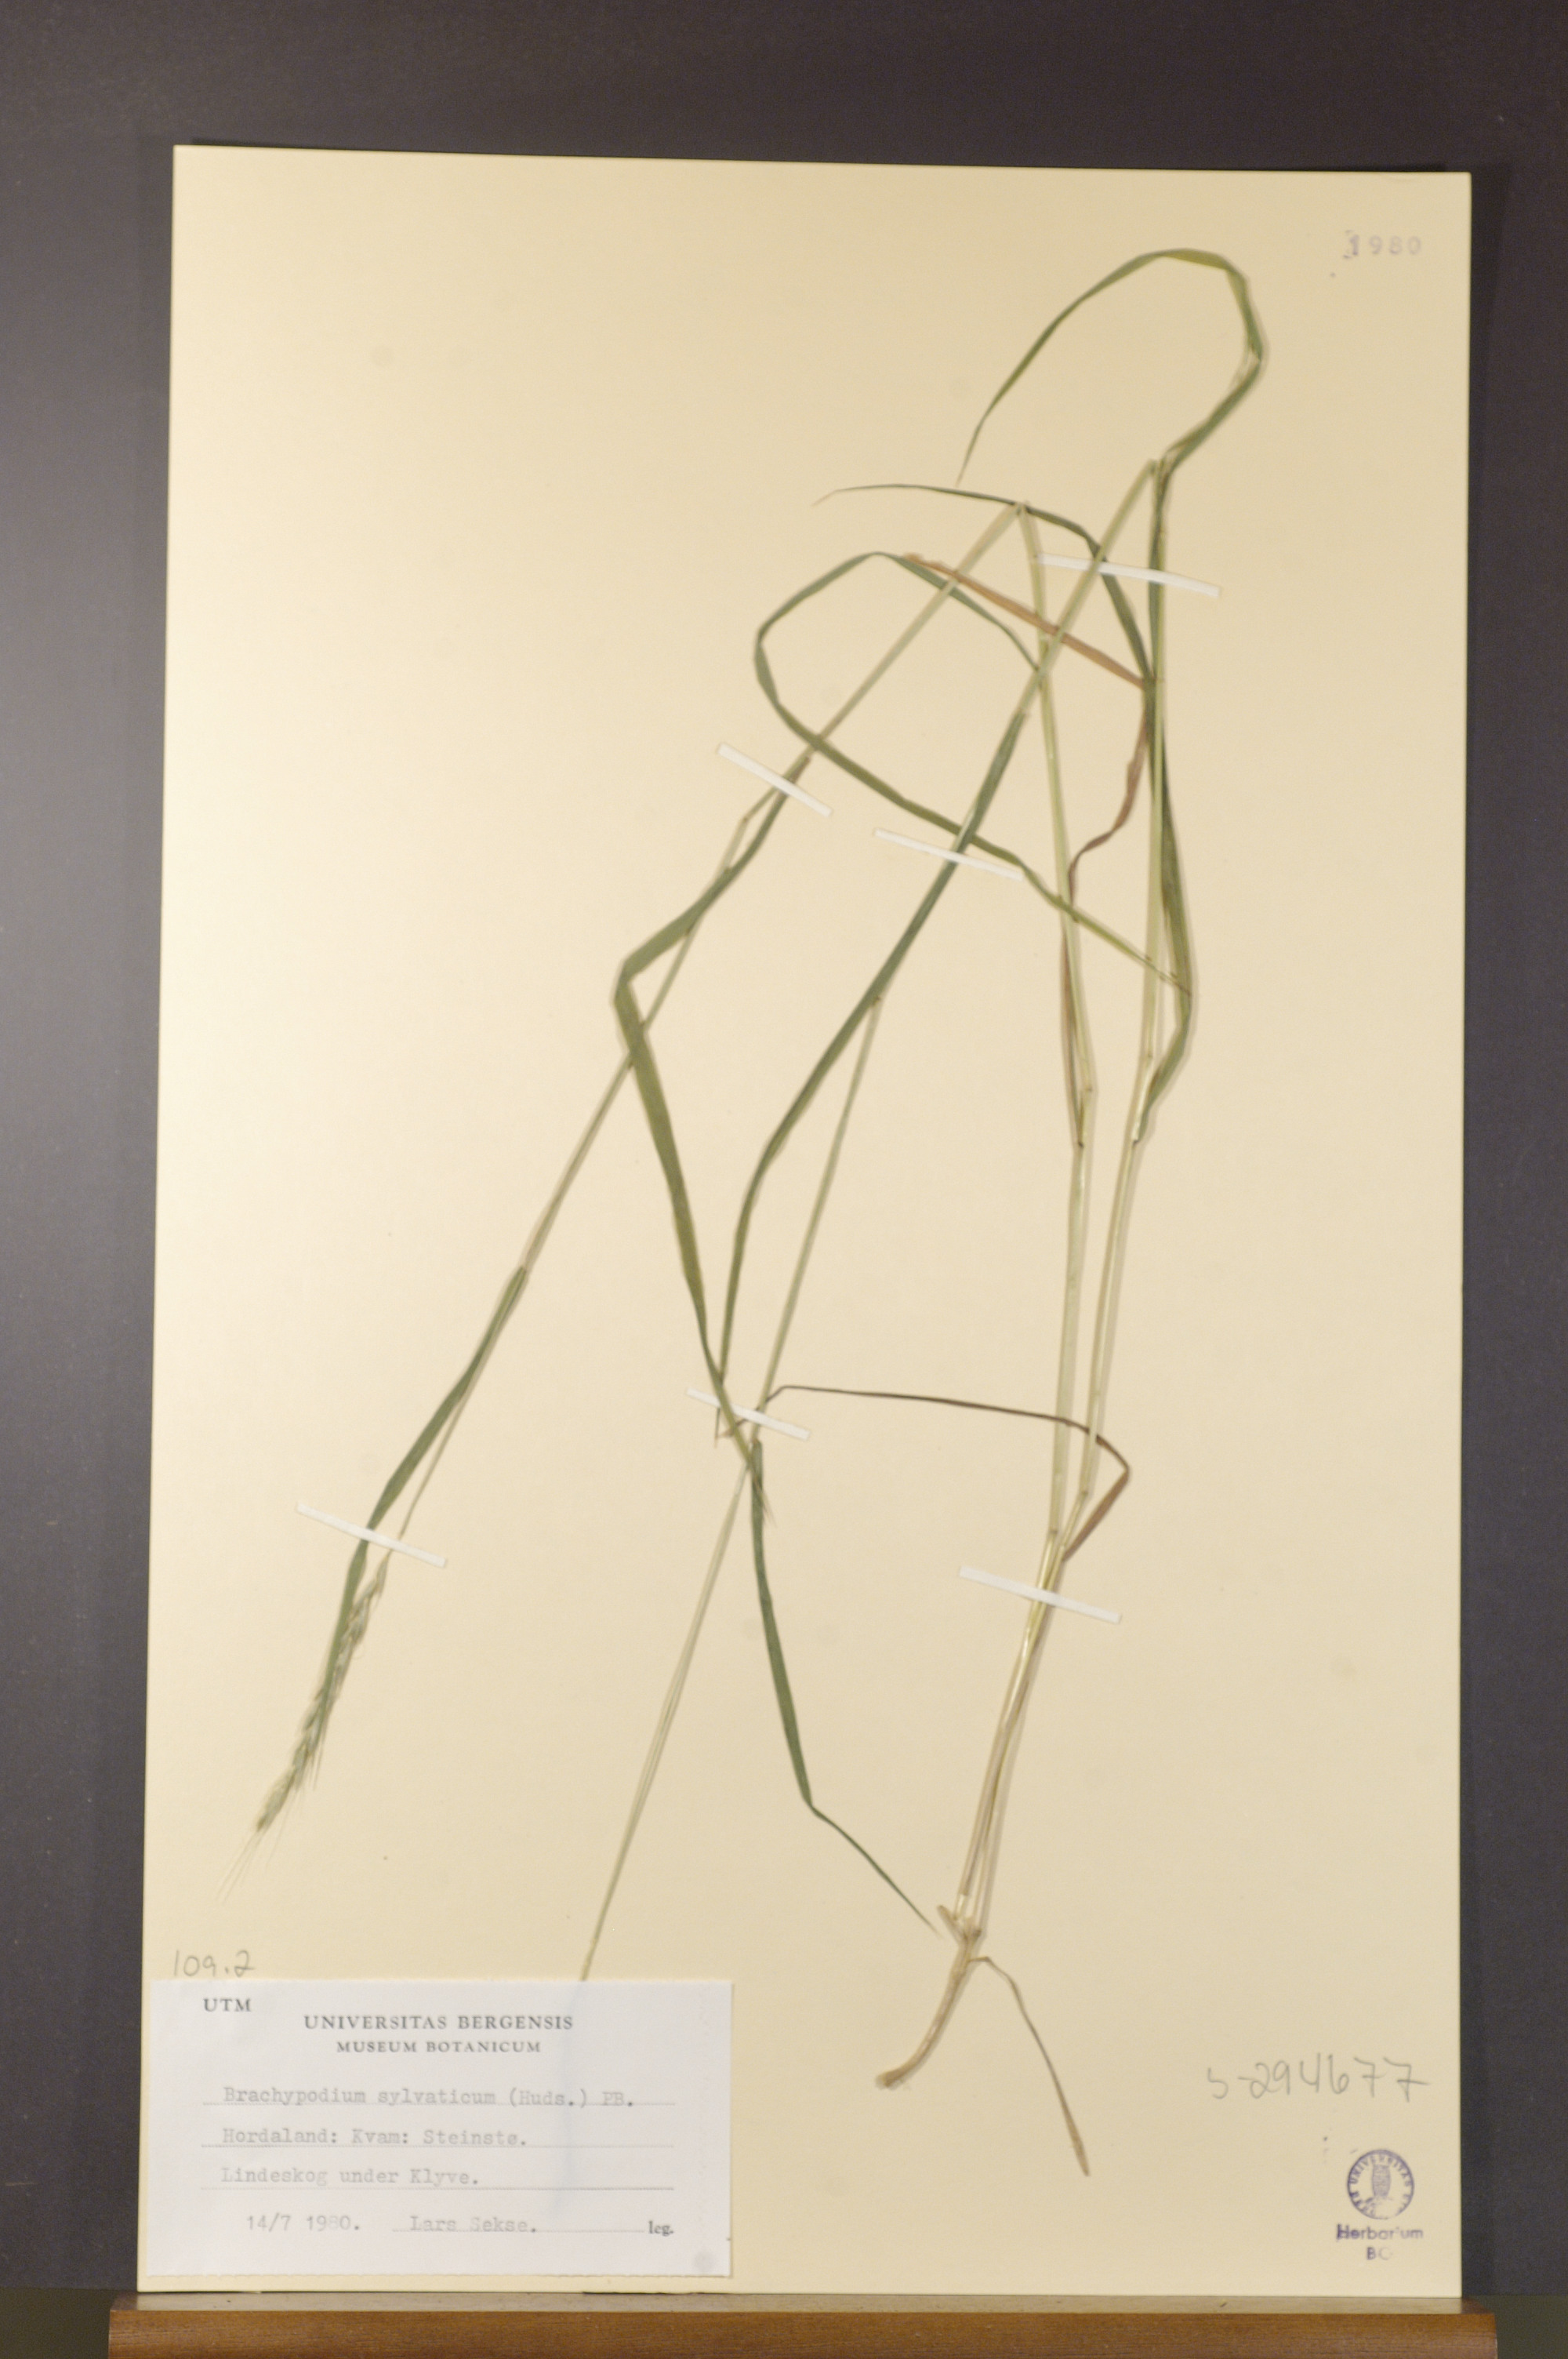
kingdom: Plantae
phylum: Tracheophyta
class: Liliopsida
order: Poales
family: Poaceae
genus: Brachypodium
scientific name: Brachypodium sylvaticum
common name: False-brome
